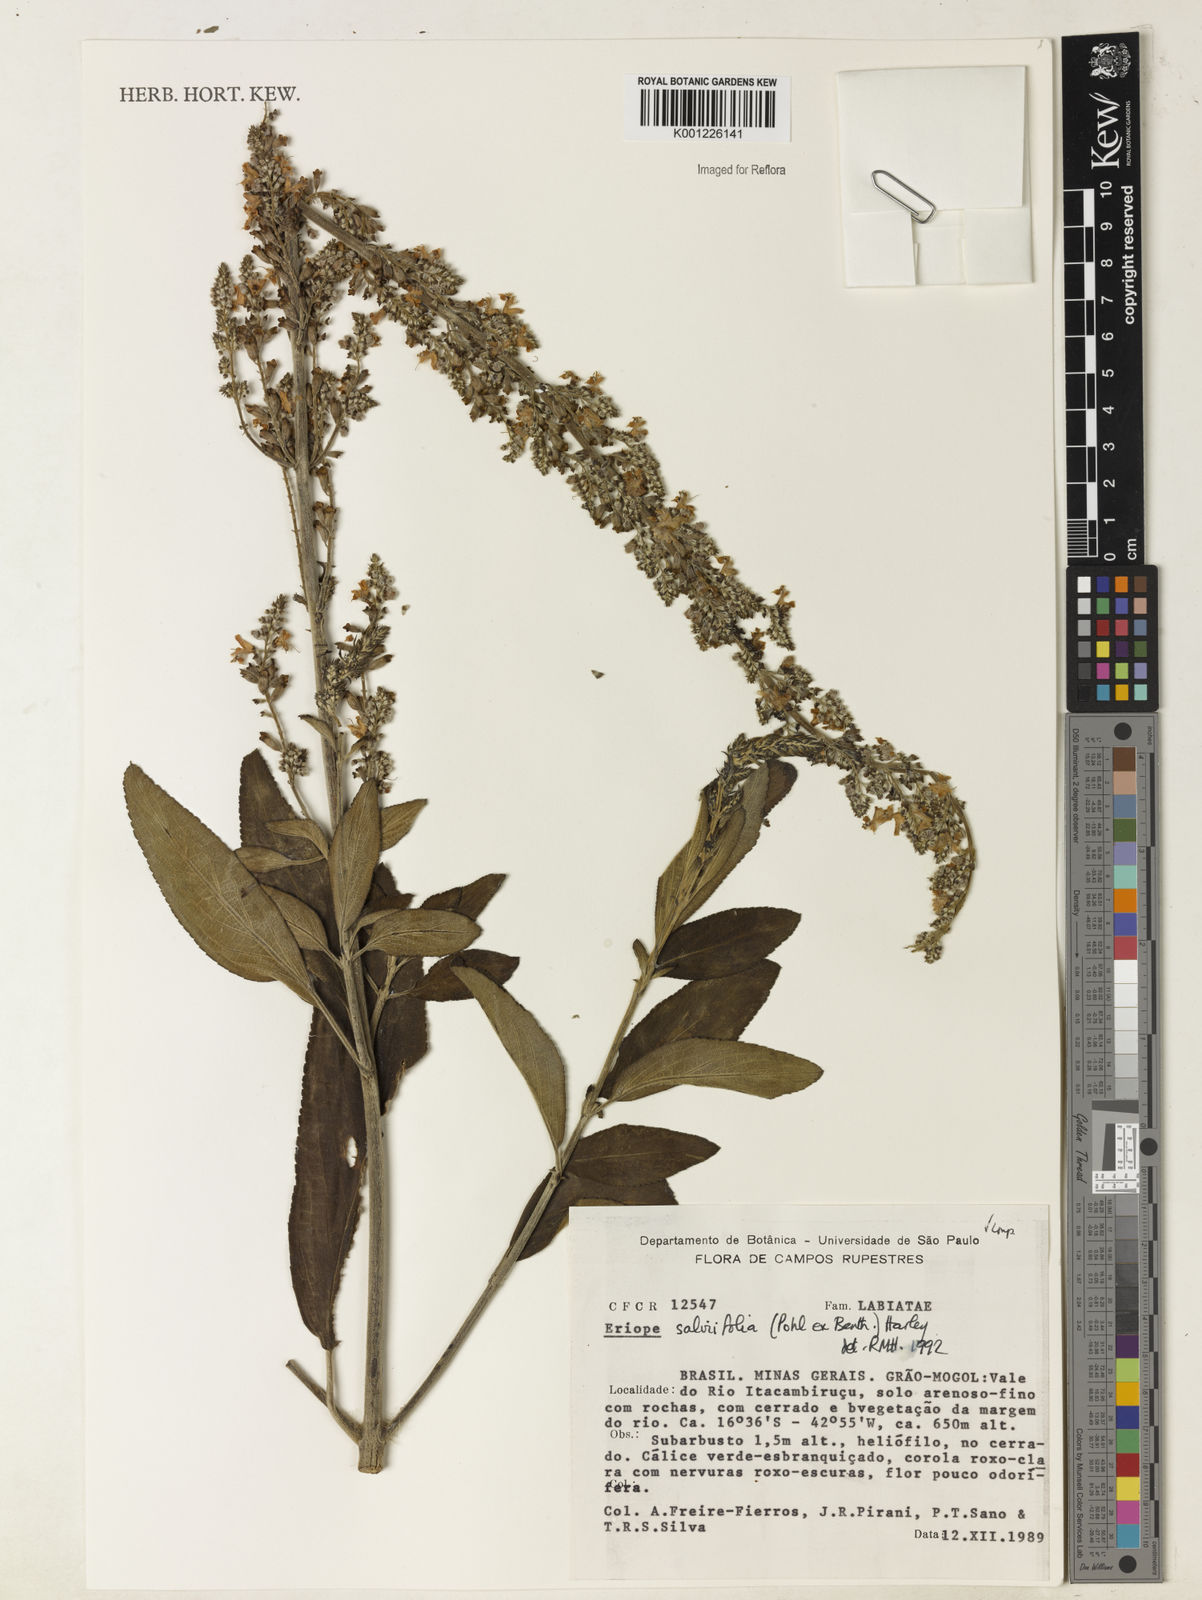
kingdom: Plantae
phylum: Tracheophyta
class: Magnoliopsida
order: Lamiales
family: Lamiaceae
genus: Eriope
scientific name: Eriope salviifolia
